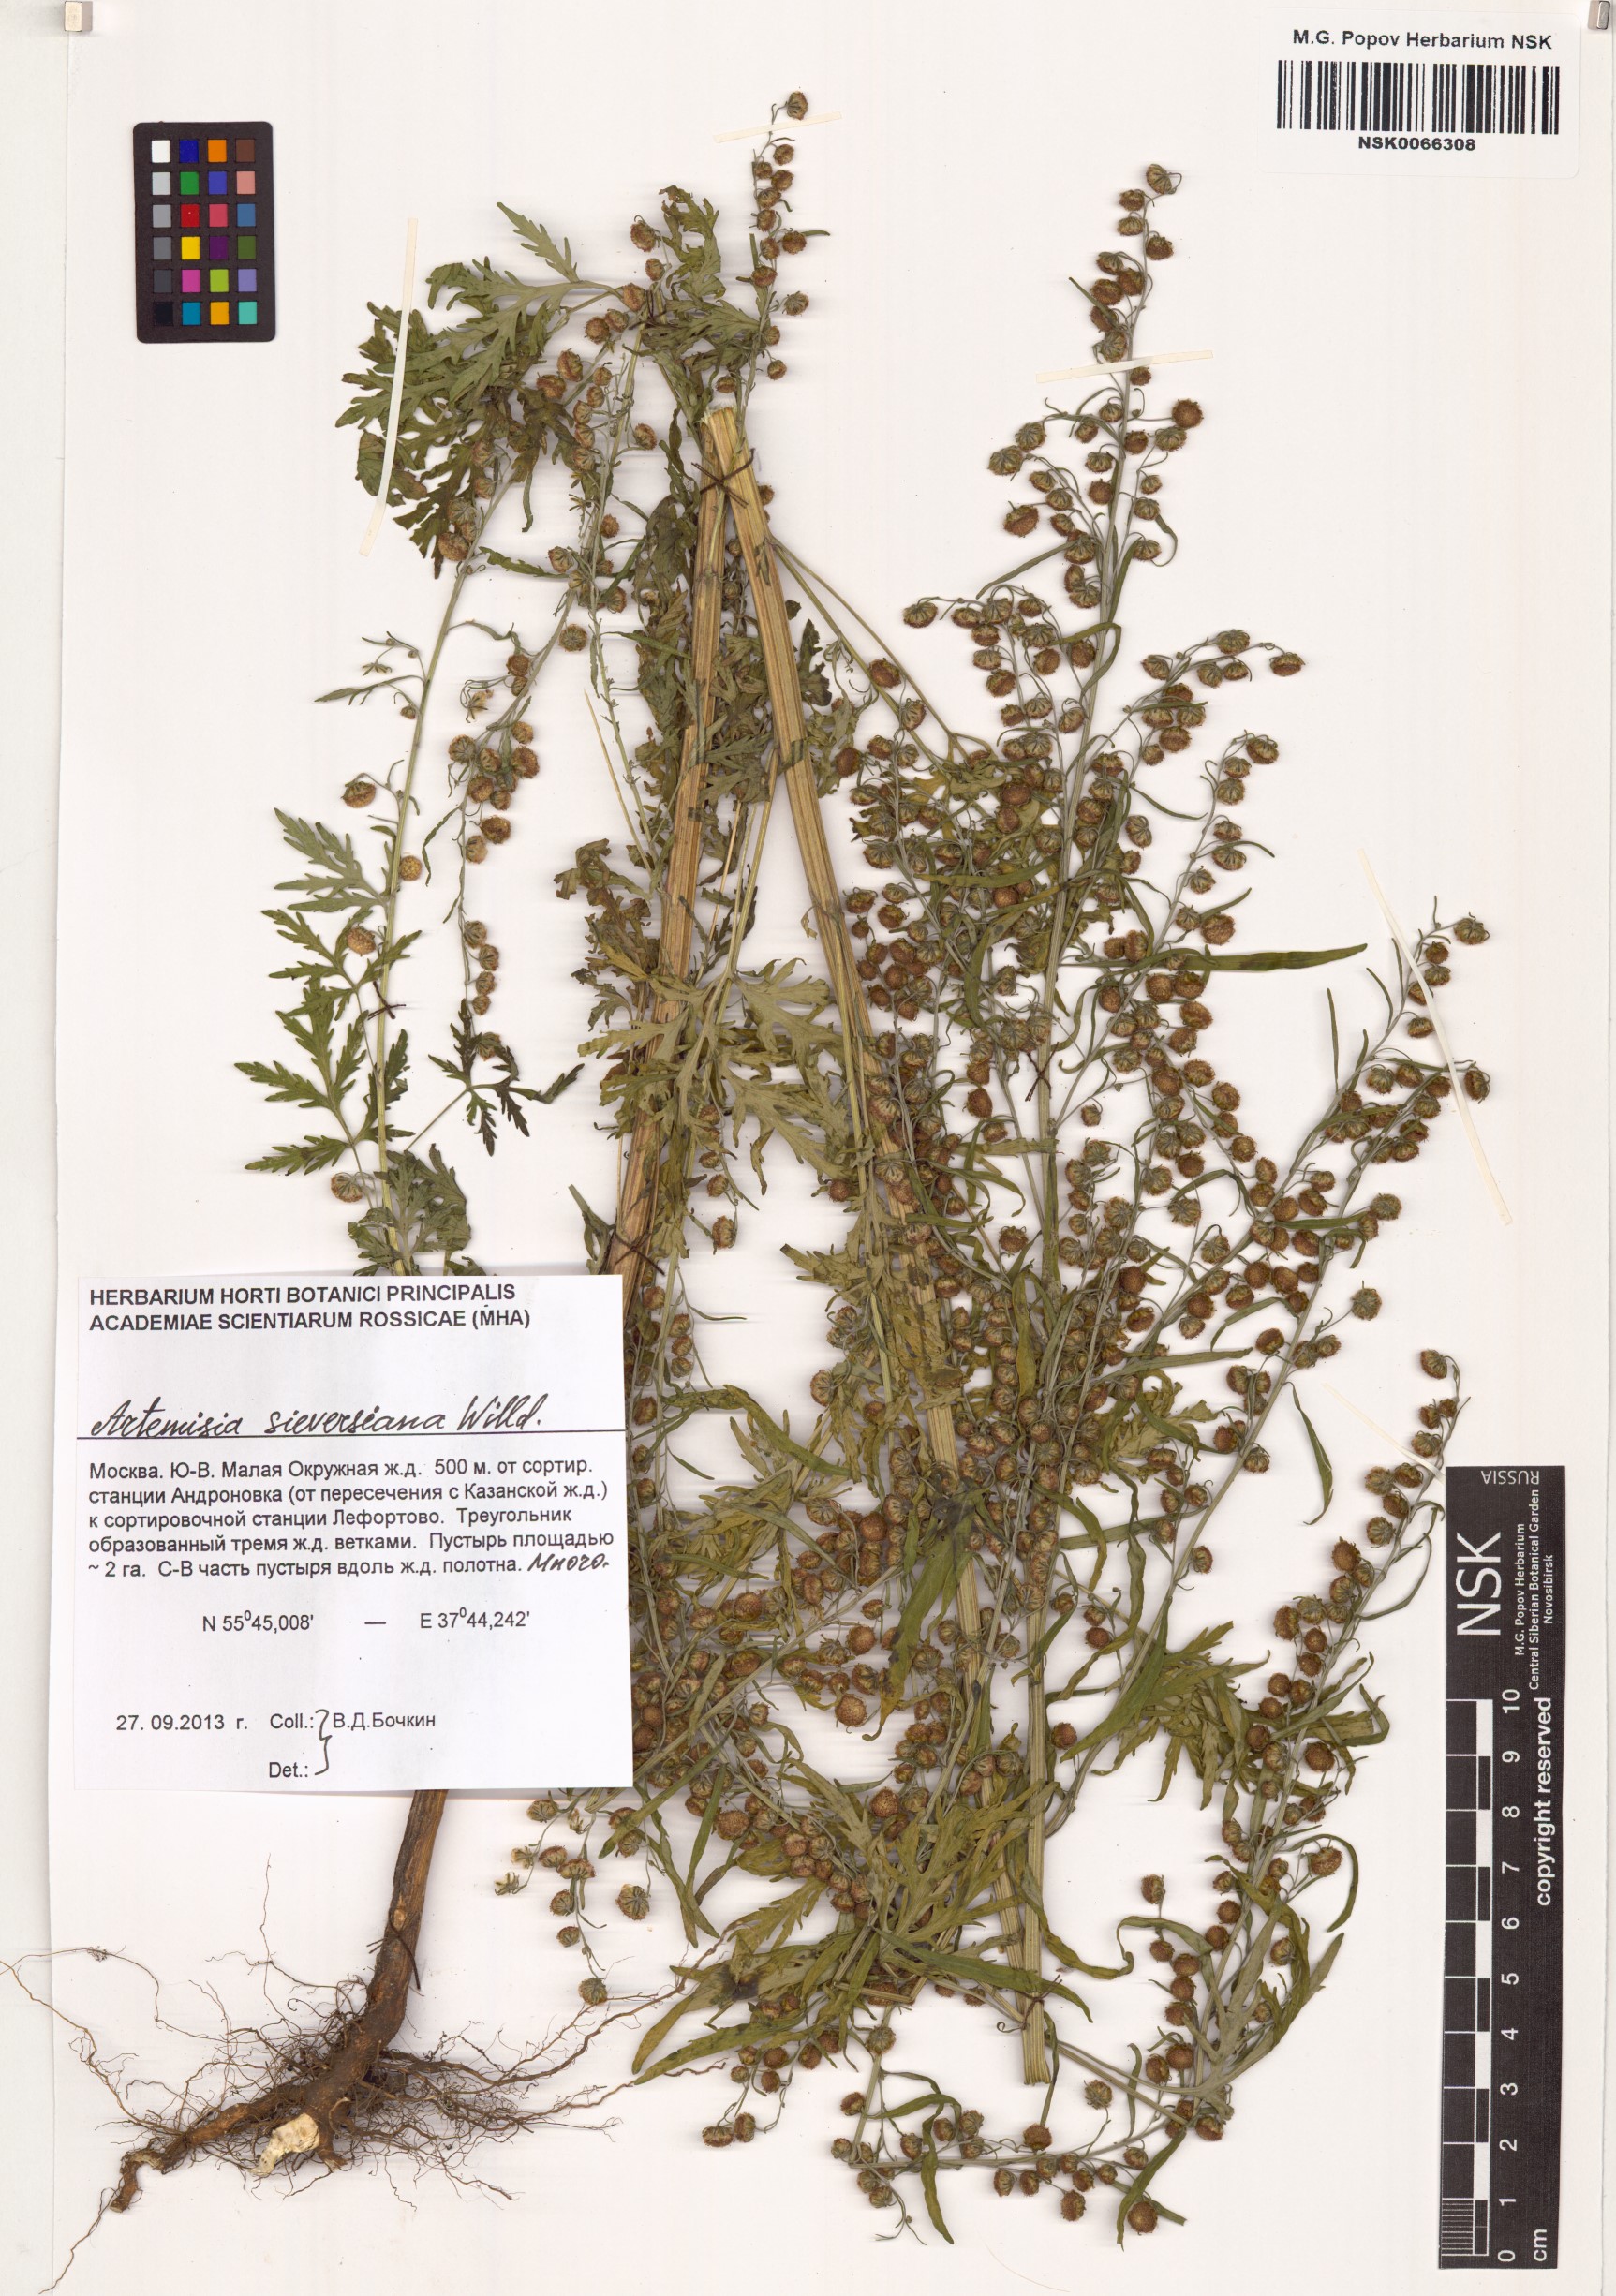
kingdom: Plantae
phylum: Tracheophyta
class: Magnoliopsida
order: Asterales
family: Asteraceae
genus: Artemisia
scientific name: Artemisia sieversiana
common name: Sieversian wormwood
